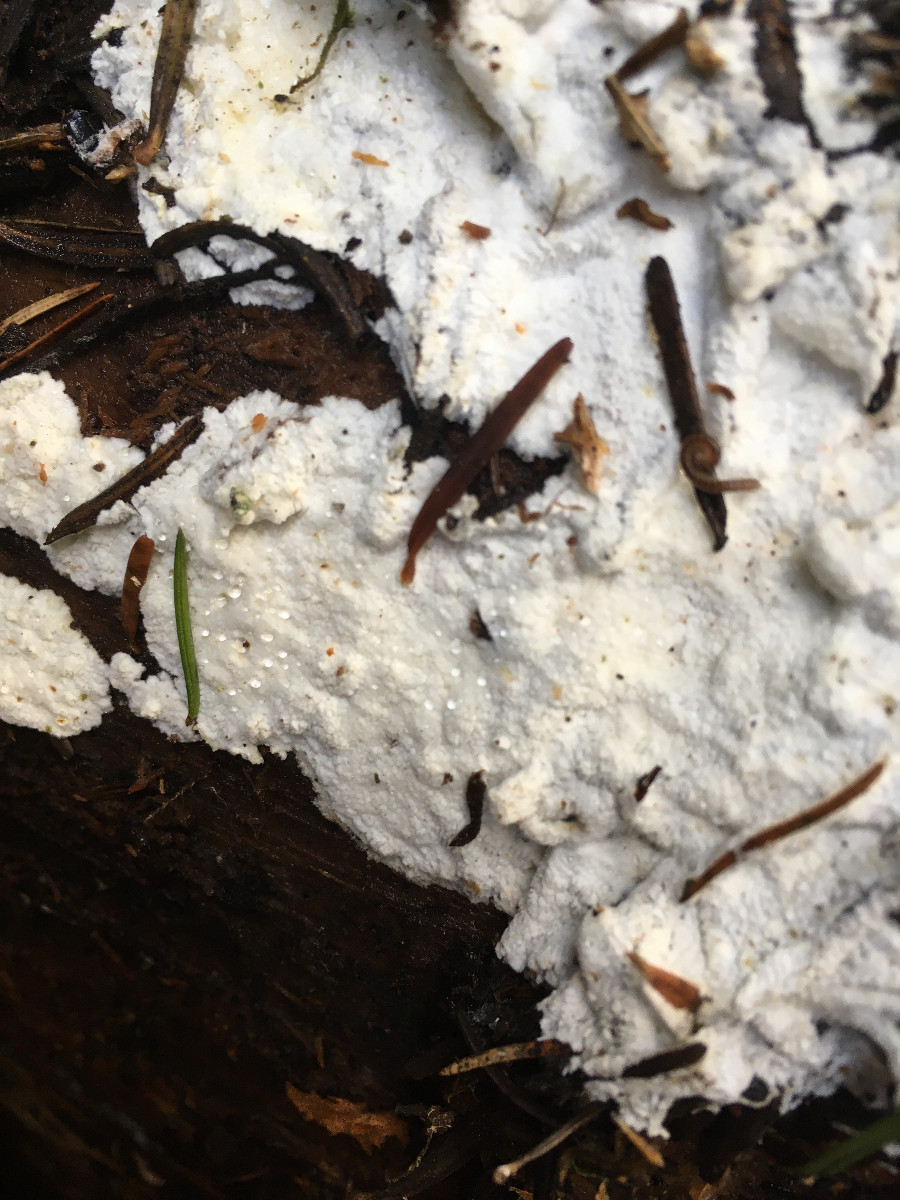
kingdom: Fungi
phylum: Basidiomycota
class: Agaricomycetes
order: Corticiales
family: Corticiaceae
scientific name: Corticiaceae
